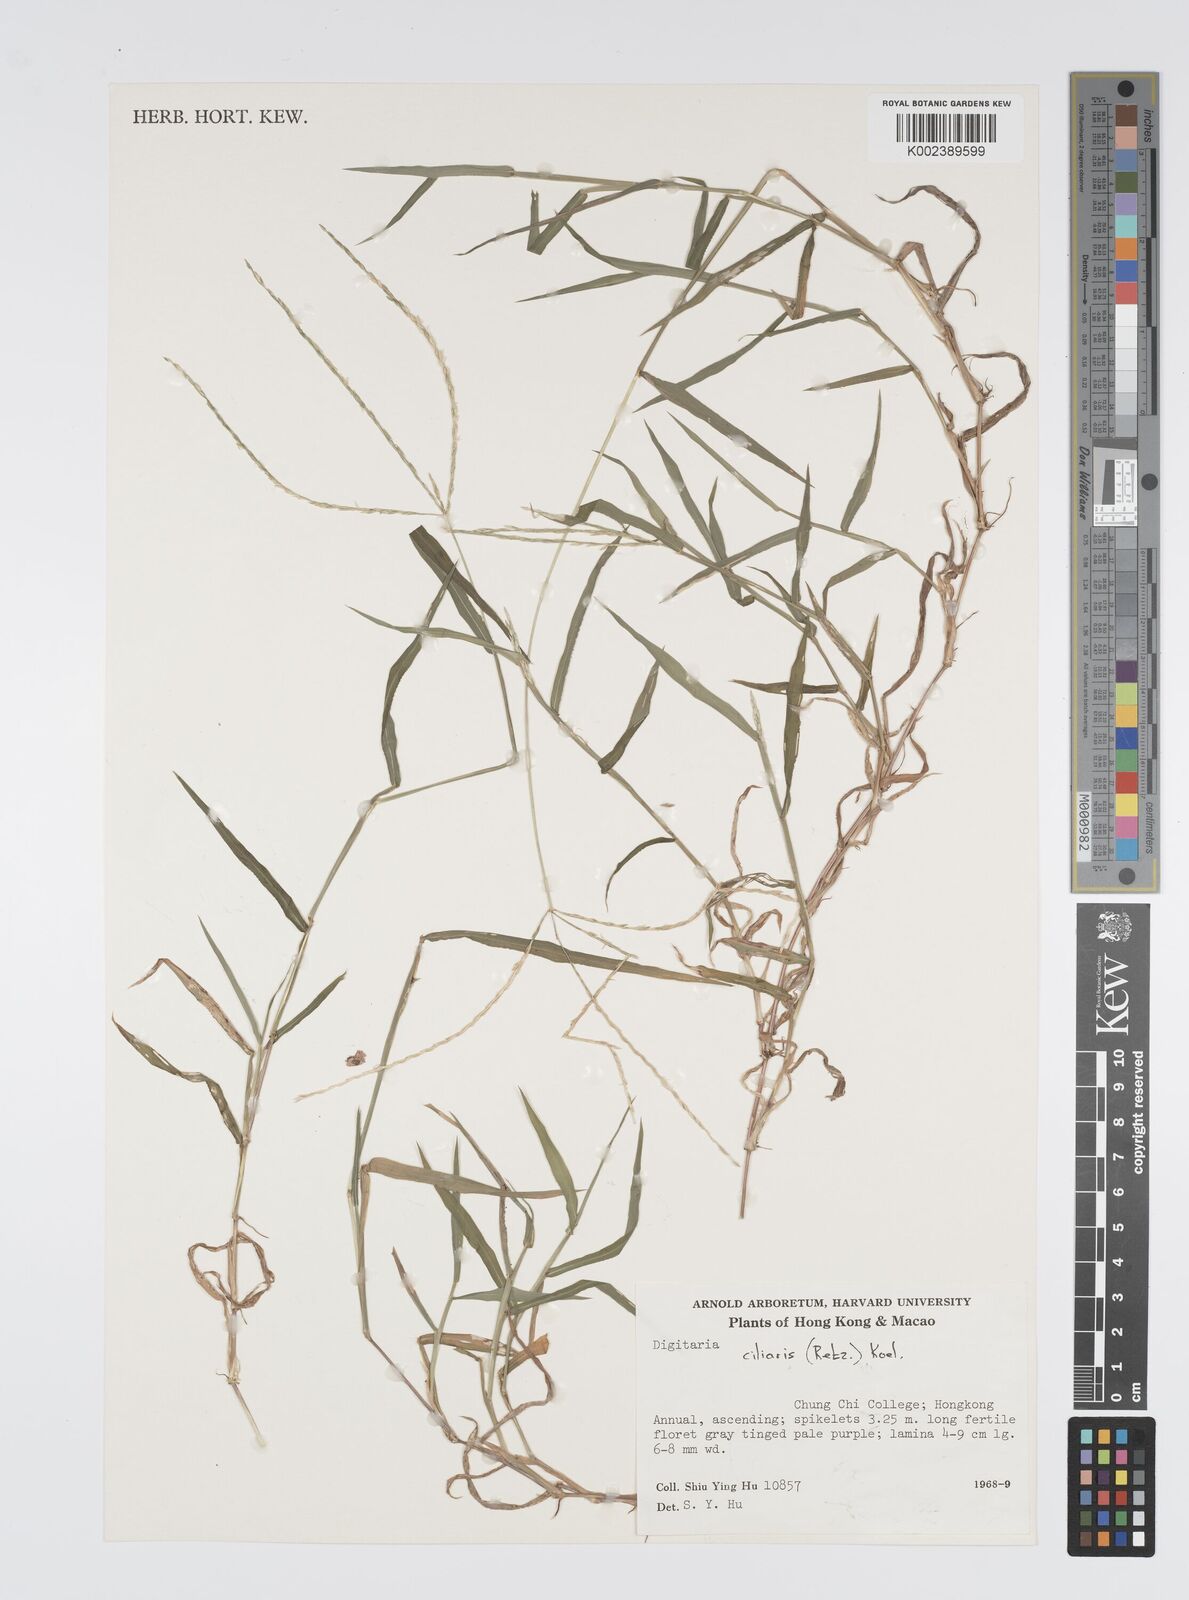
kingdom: Plantae
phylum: Tracheophyta
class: Liliopsida
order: Poales
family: Poaceae
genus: Digitaria
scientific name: Digitaria ciliaris
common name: Tropical finger-grass
